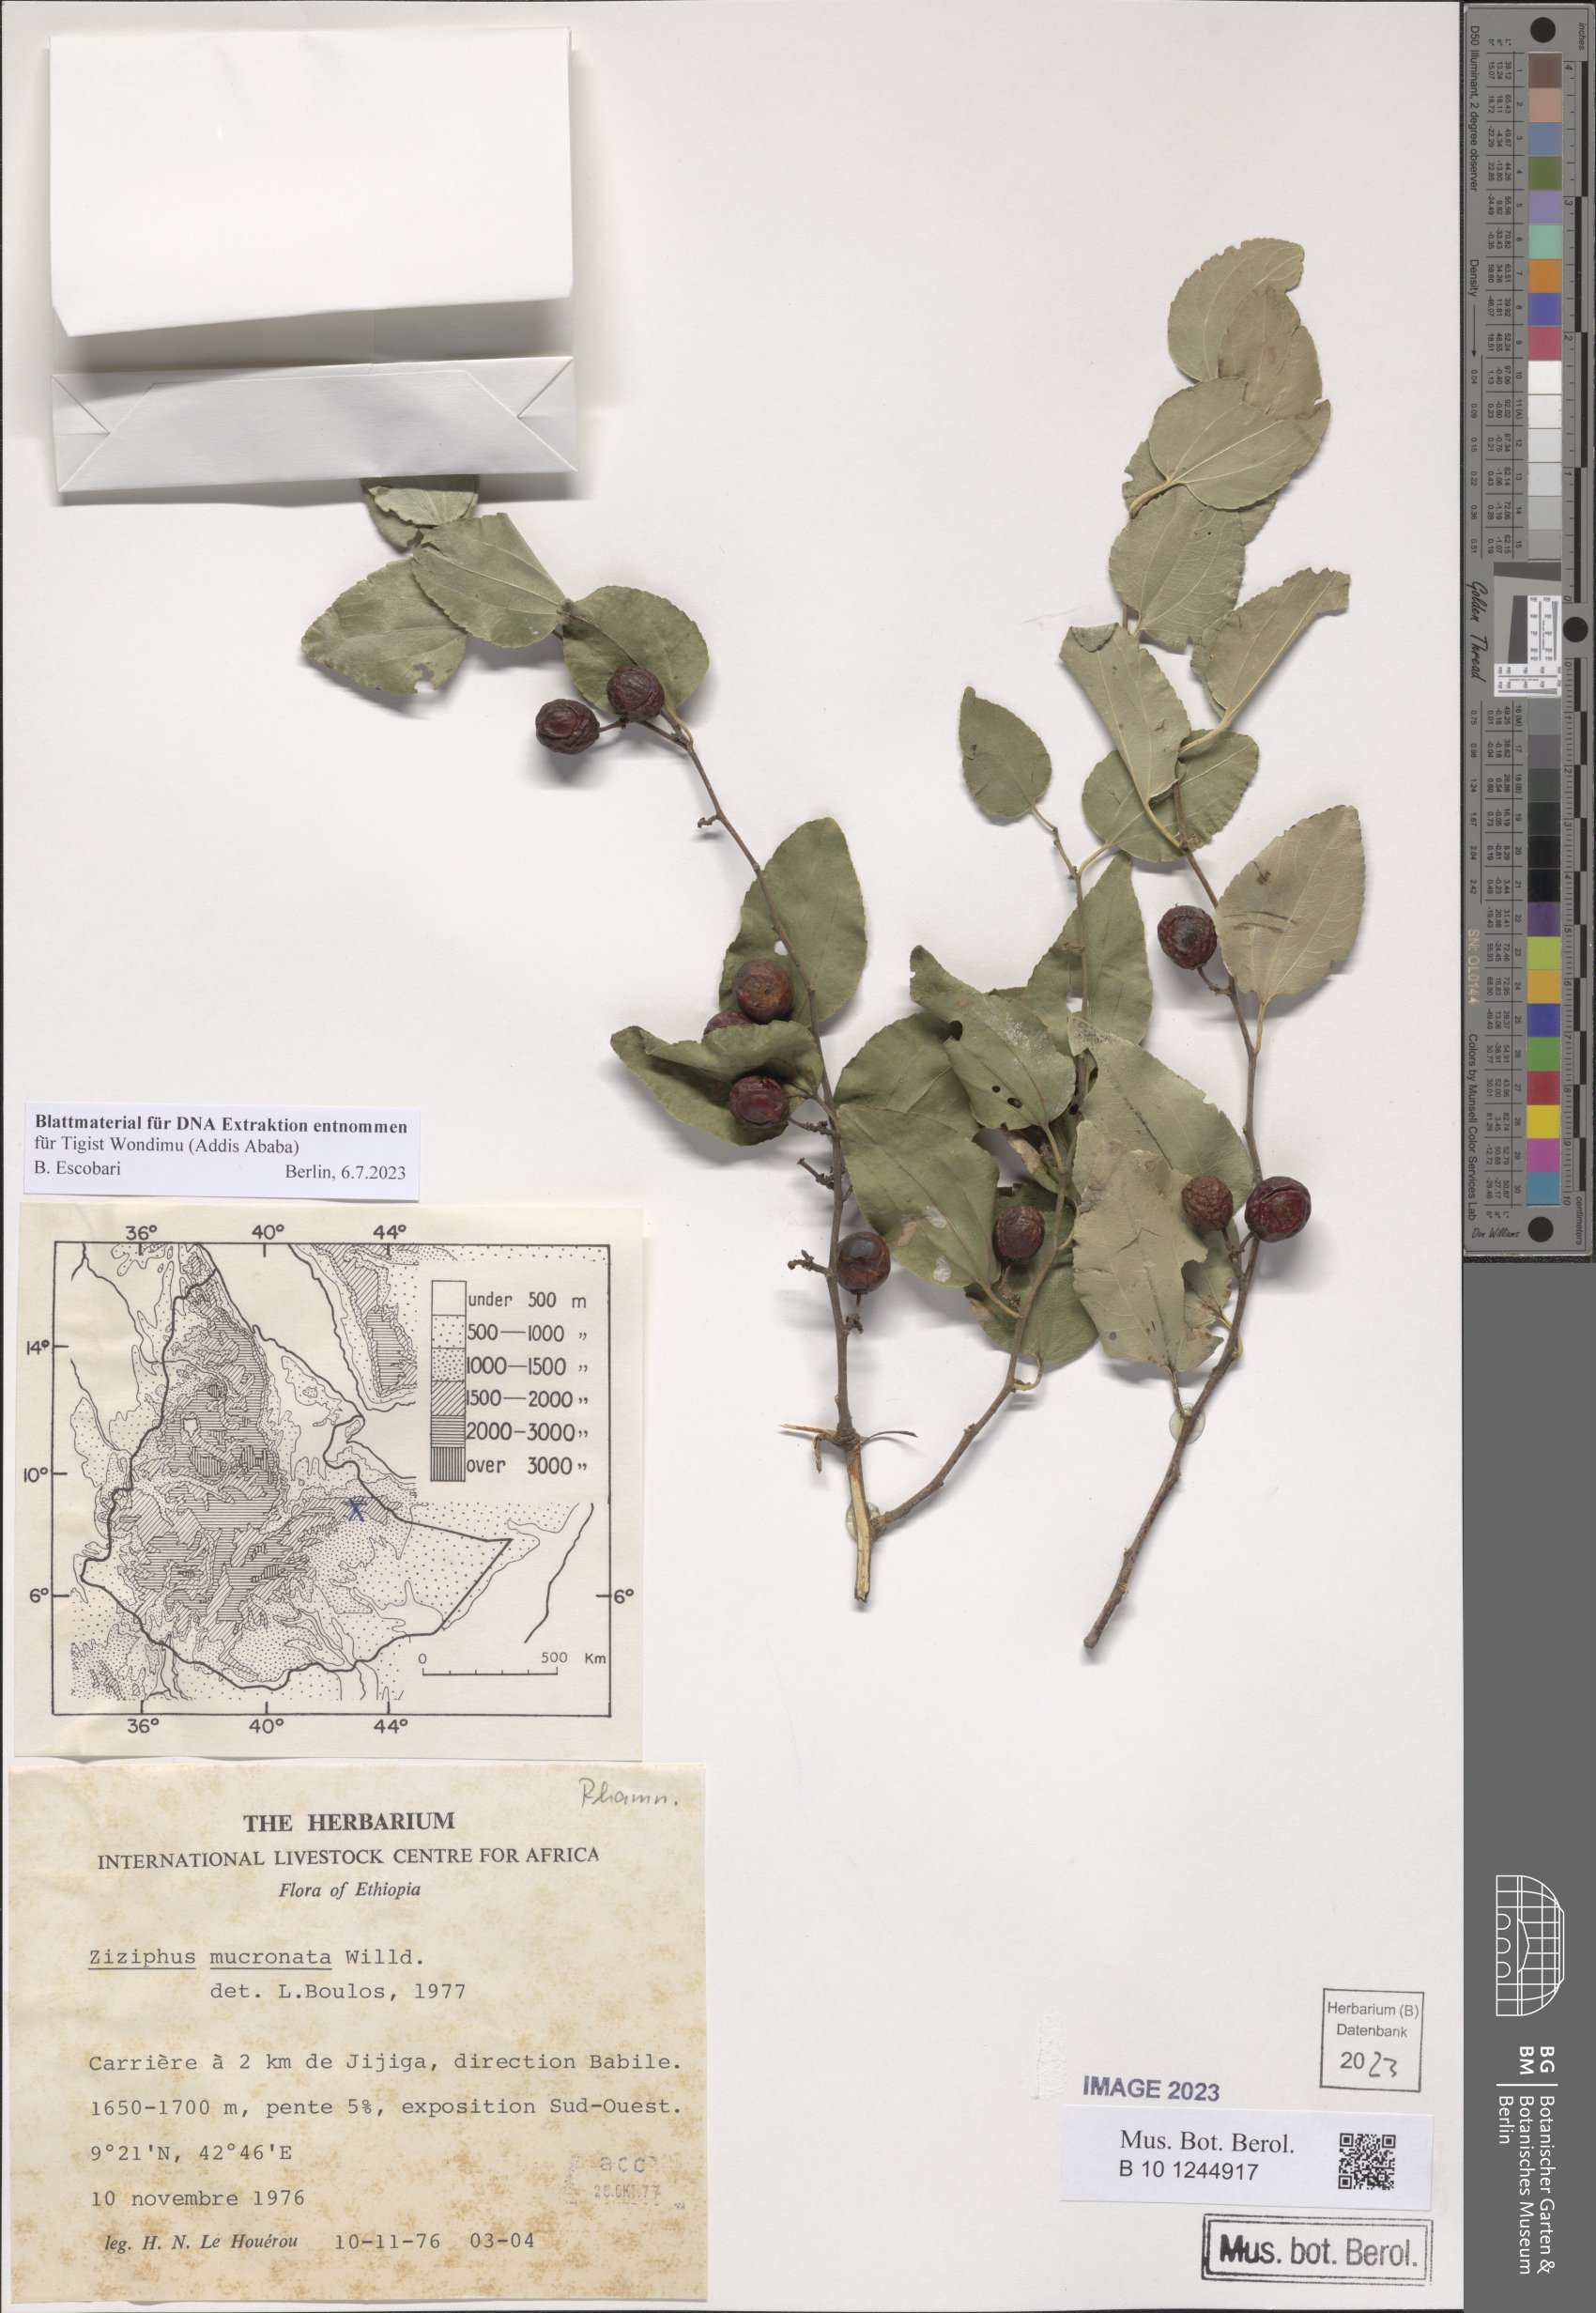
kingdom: Plantae
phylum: Tracheophyta
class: Magnoliopsida
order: Rosales
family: Rhamnaceae
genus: Ziziphus
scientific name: Ziziphus mucronata
